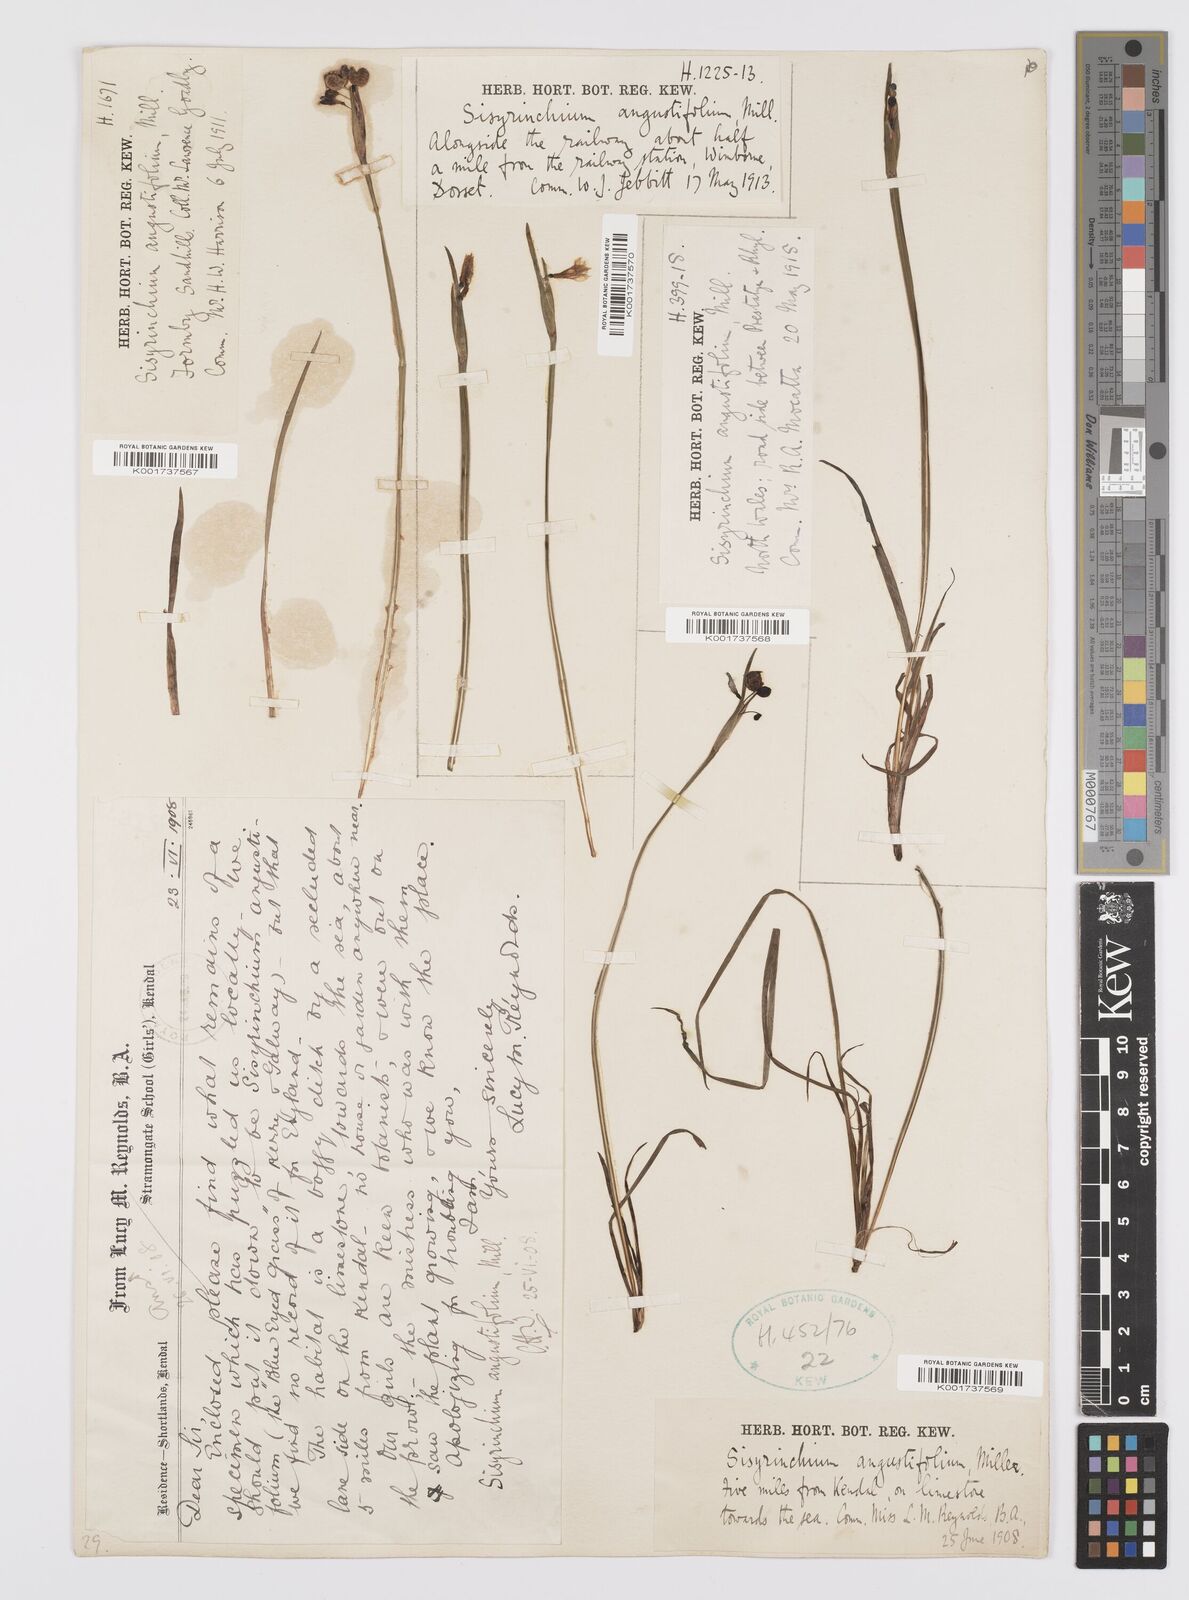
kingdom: Plantae
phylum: Tracheophyta
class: Liliopsida
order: Asparagales
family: Iridaceae
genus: Sisyrinchium
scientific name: Sisyrinchium angustifolium
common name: Narrow-leaf blue-eyed-grass
